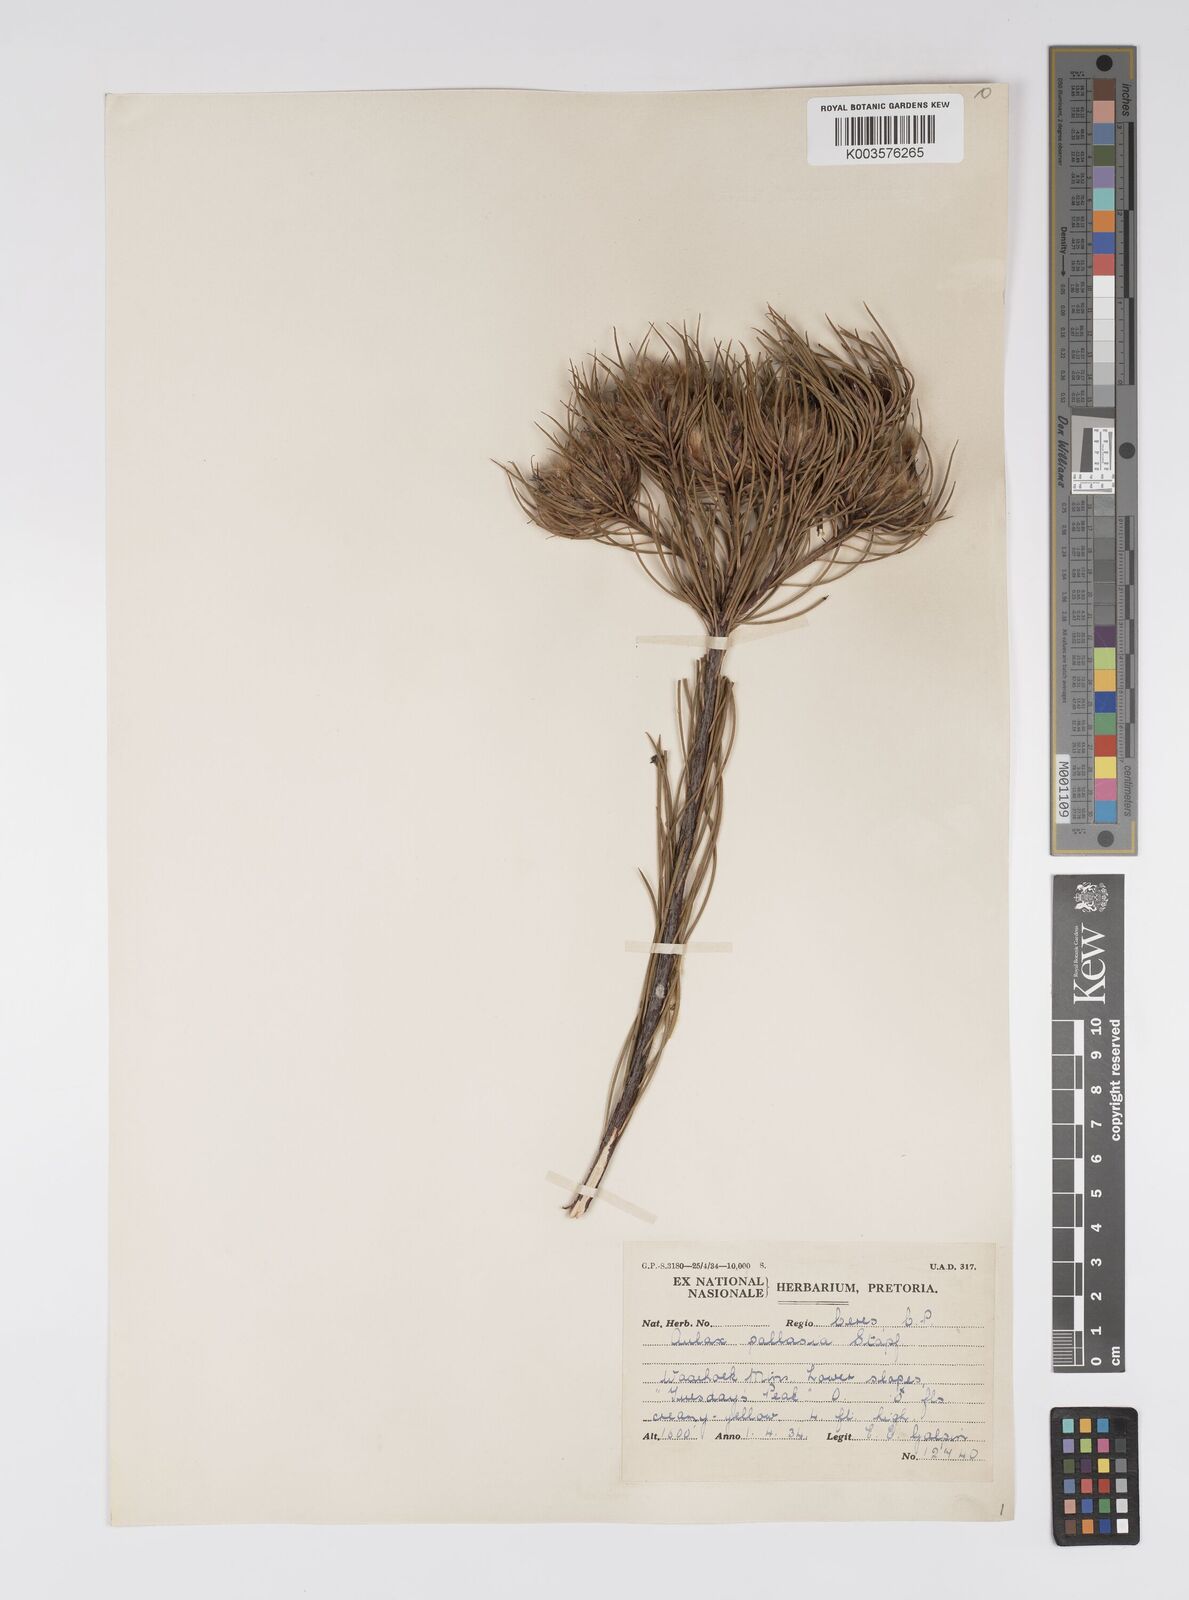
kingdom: Plantae
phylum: Tracheophyta
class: Magnoliopsida
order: Proteales
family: Proteaceae
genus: Aulax
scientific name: Aulax pallasia
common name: Needle-leaf featherbush
